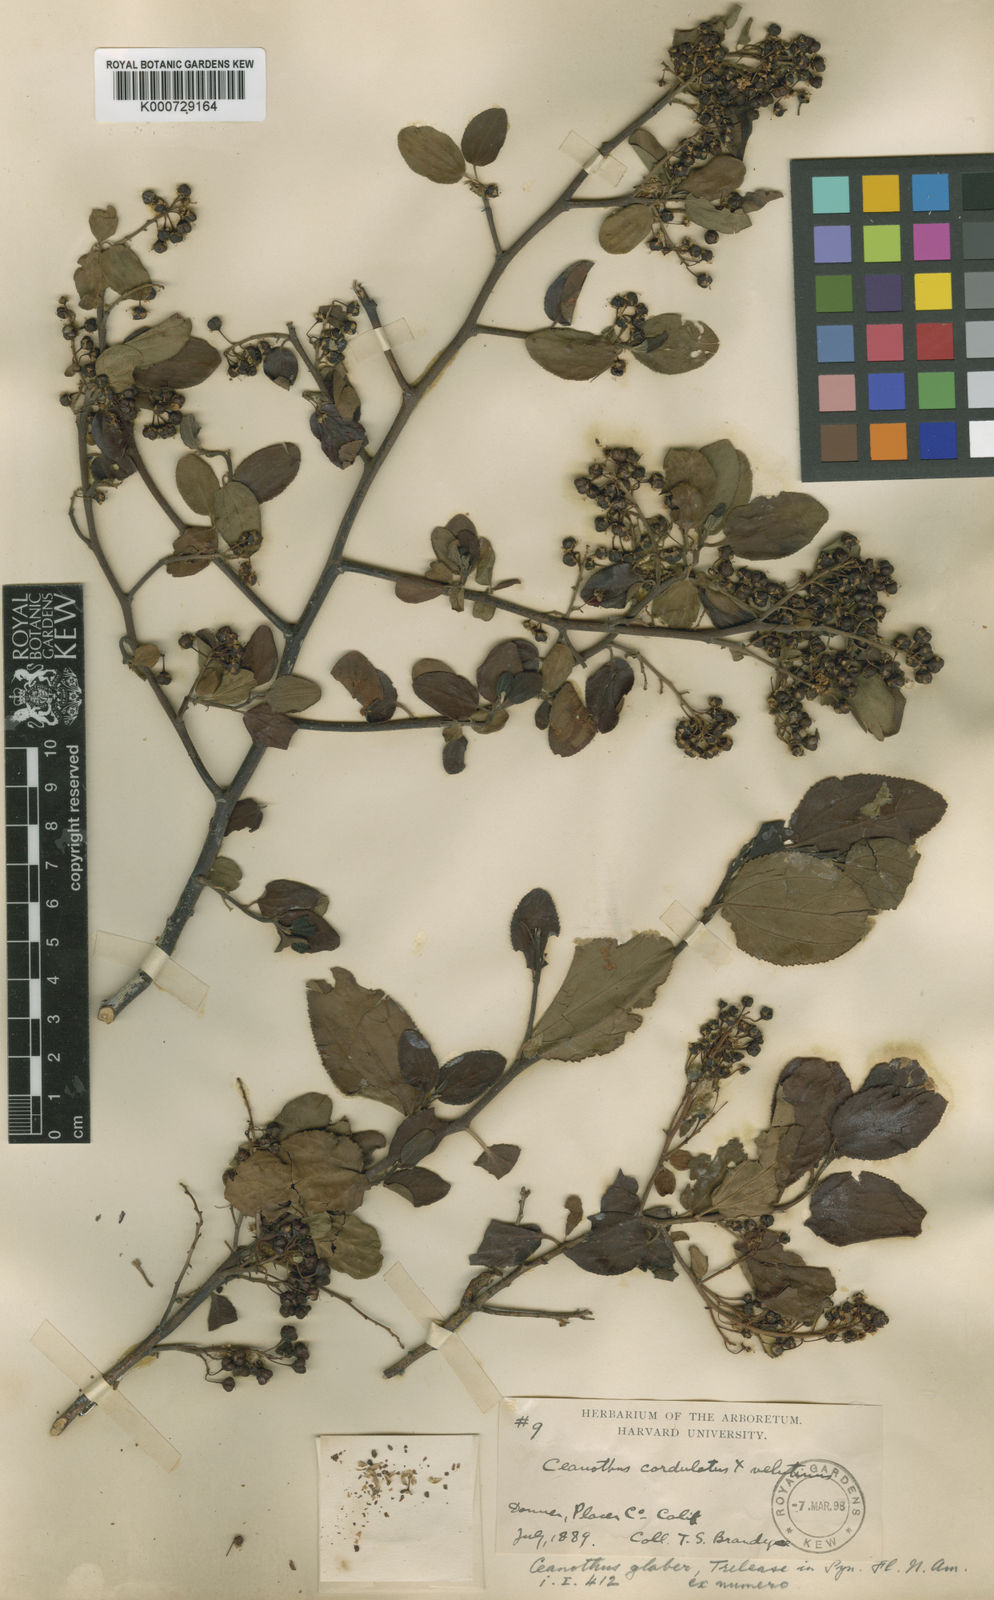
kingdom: Plantae
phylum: Tracheophyta
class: Magnoliopsida
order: Rosales
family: Rhamnaceae
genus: Ceanothus
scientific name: Ceanothus lorenzenii
